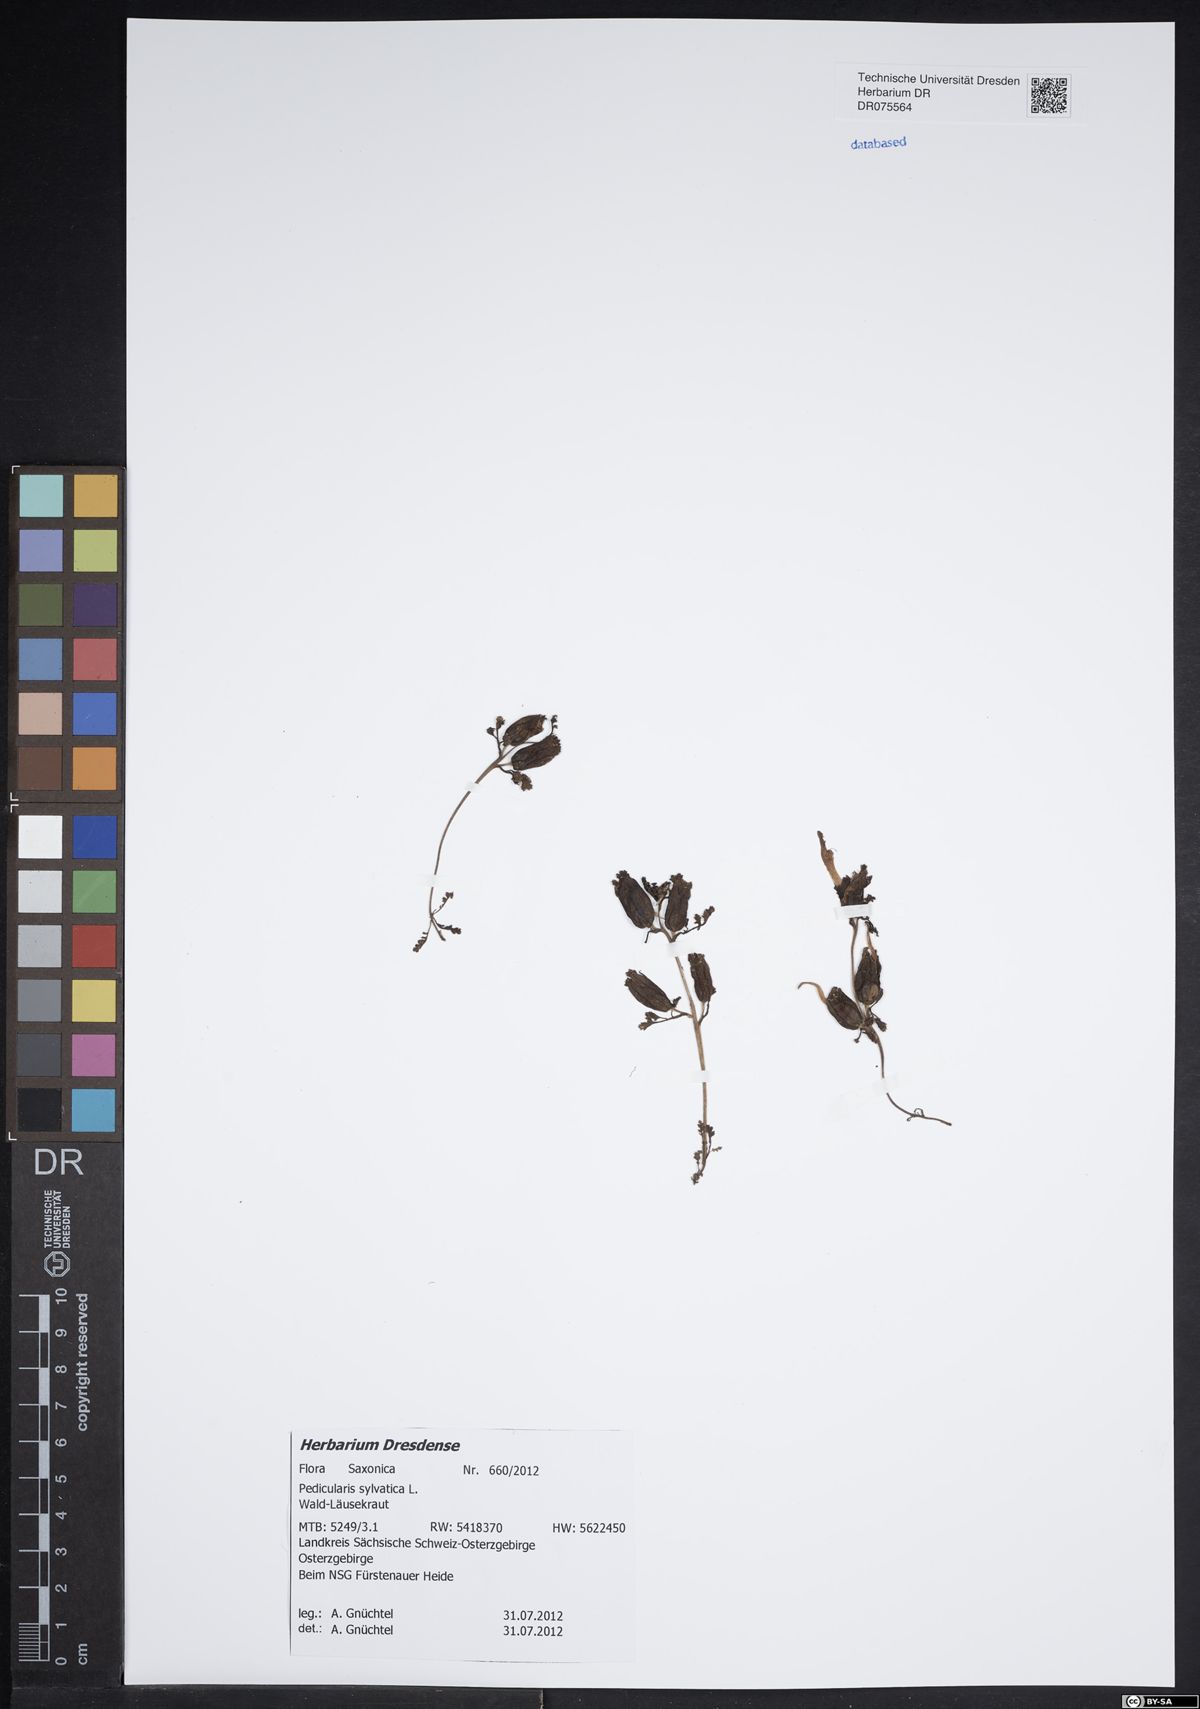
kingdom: Plantae
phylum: Tracheophyta
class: Magnoliopsida
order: Lamiales
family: Orobanchaceae
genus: Pedicularis
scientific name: Pedicularis sylvatica
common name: Lousewort
